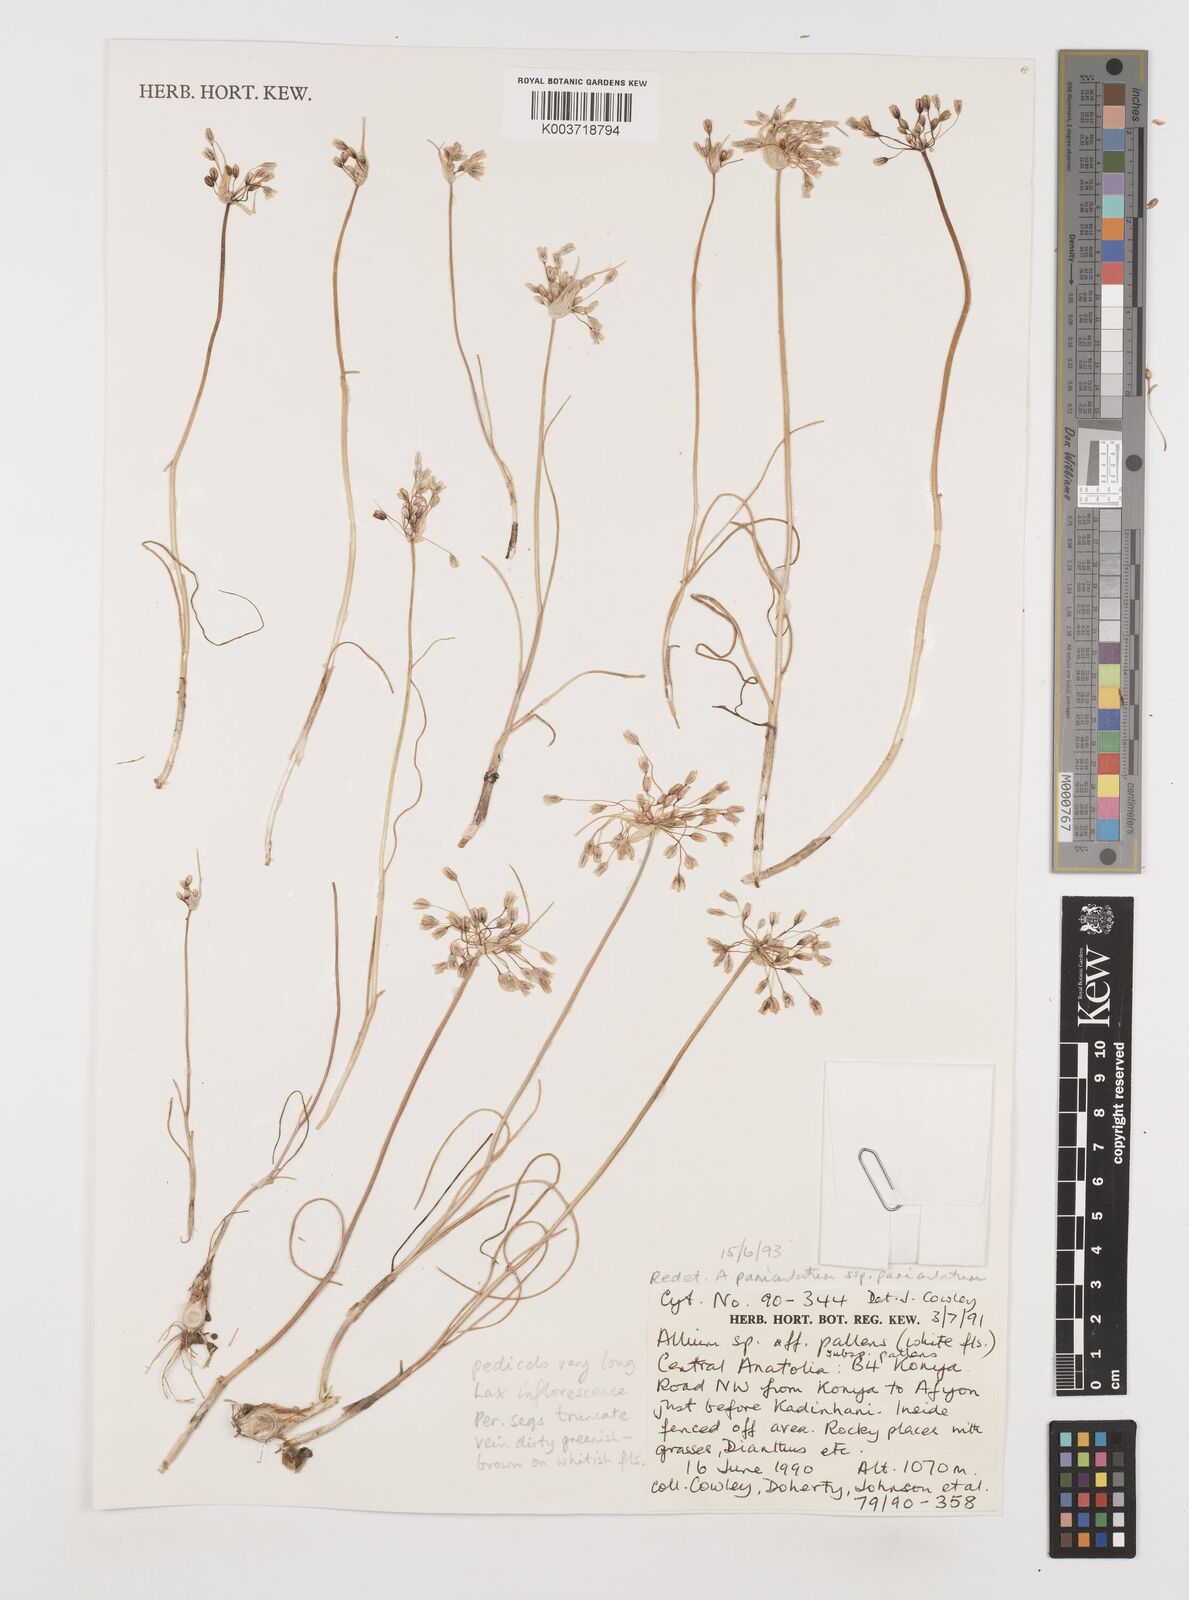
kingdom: Plantae
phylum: Tracheophyta
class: Liliopsida
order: Asparagales
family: Amaryllidaceae
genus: Allium
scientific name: Allium paniculatum
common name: Pale garlic
